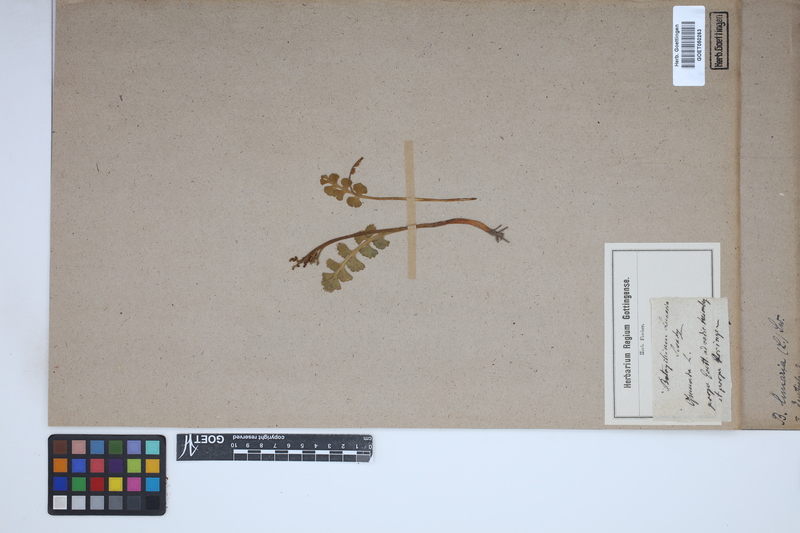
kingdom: Plantae
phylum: Tracheophyta
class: Polypodiopsida
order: Ophioglossales
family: Ophioglossaceae
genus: Botrychium
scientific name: Botrychium lunaria
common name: Moonwort
